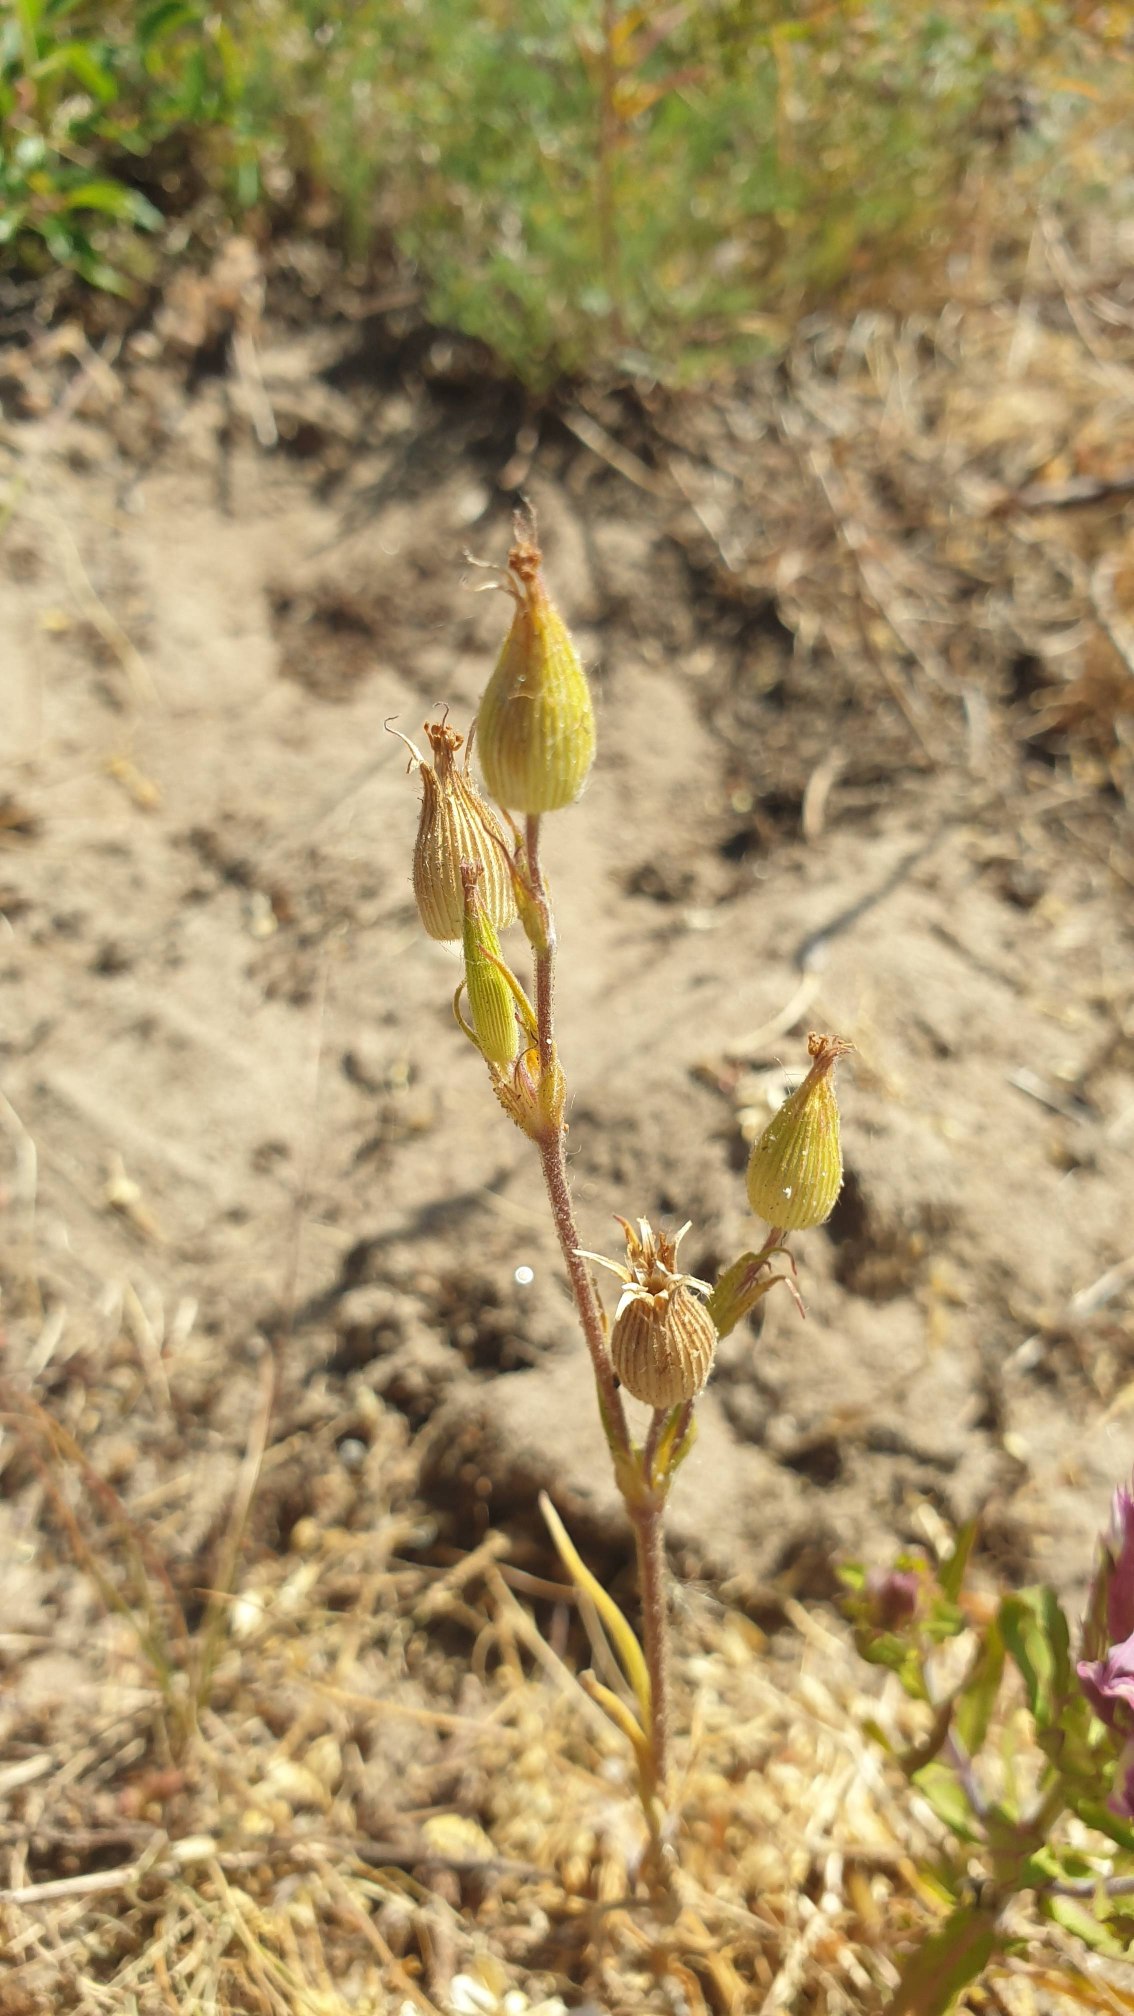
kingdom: Plantae
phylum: Tracheophyta
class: Magnoliopsida
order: Caryophyllales
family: Caryophyllaceae
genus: Silene
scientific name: Silene conica
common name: Kegle-limurt
